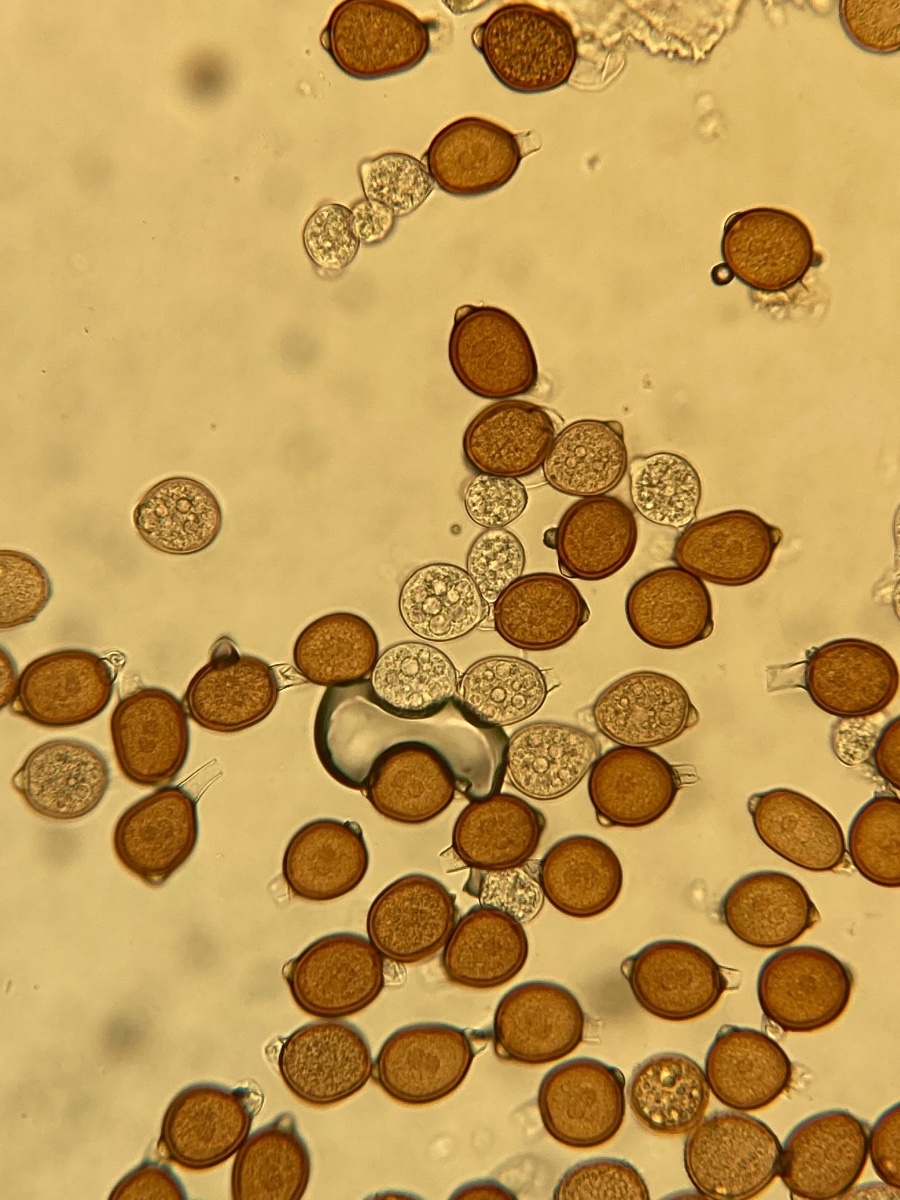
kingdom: Fungi
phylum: Basidiomycota
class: Pucciniomycetes
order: Pucciniales
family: Pucciniaceae
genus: Uromyces
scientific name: Uromyces rumicis
